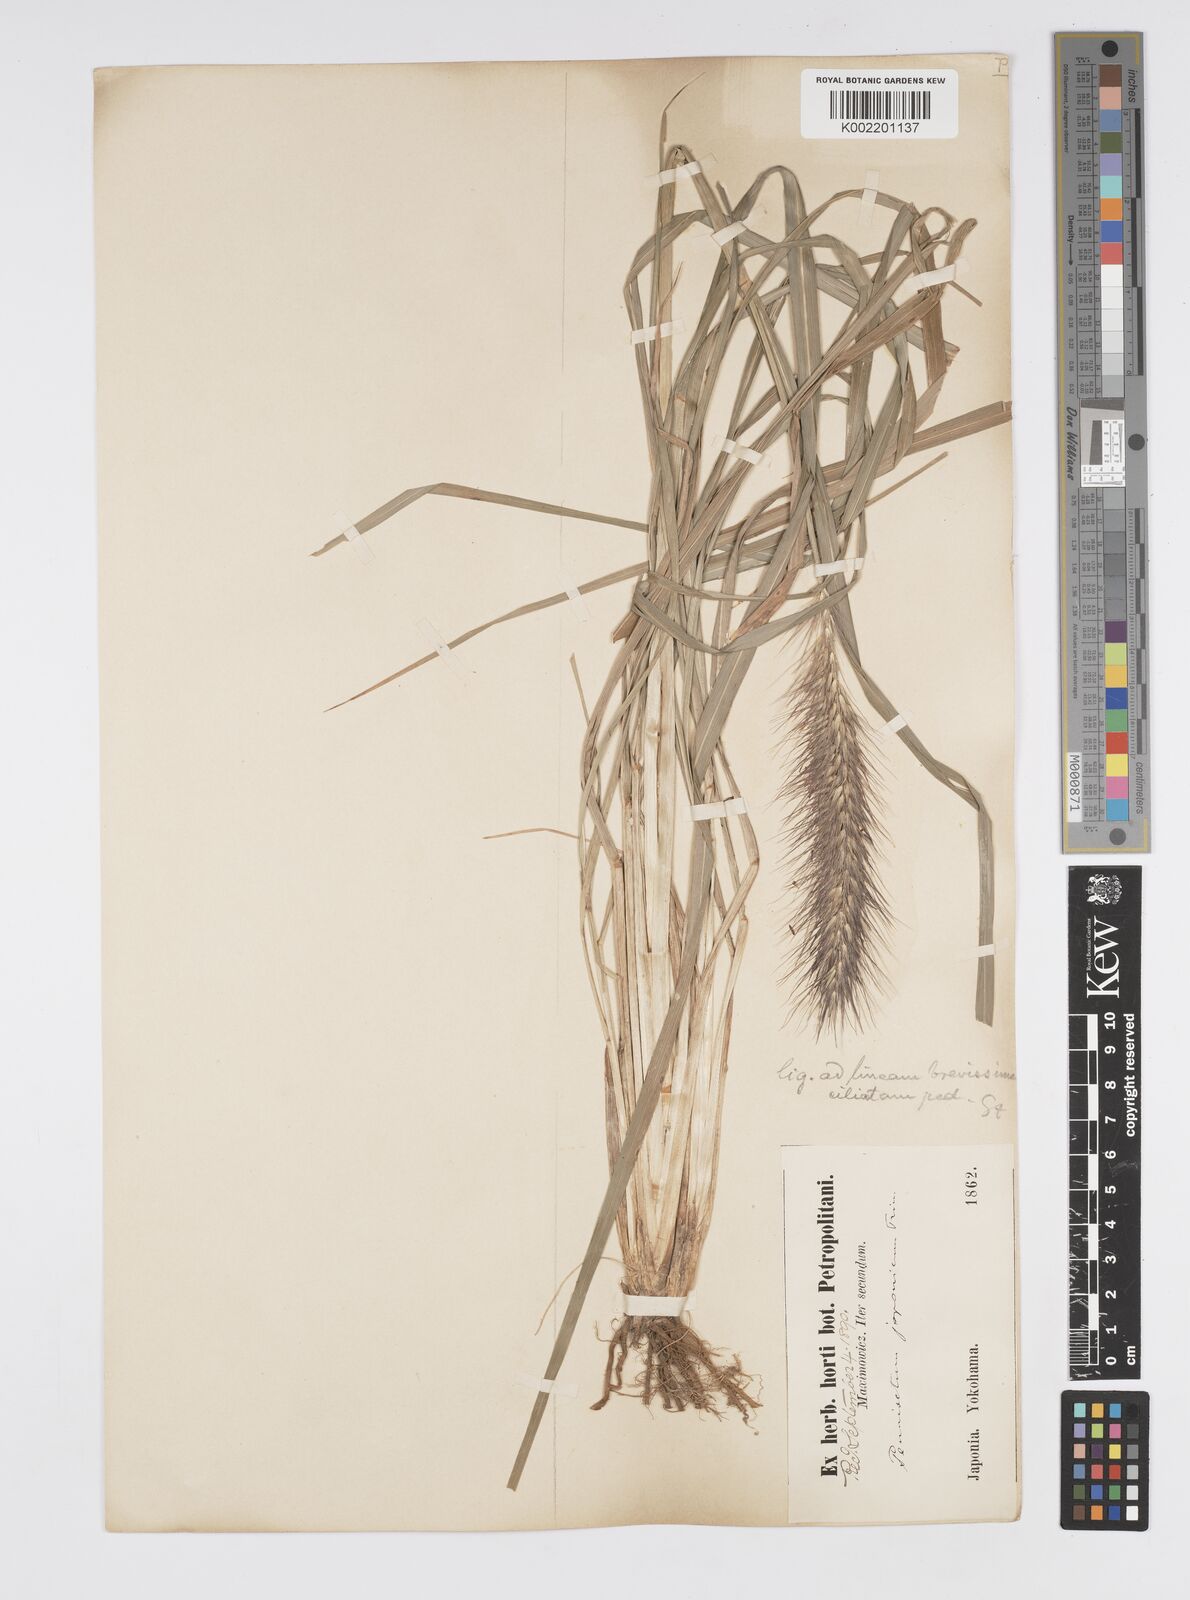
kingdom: Plantae
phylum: Tracheophyta
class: Liliopsida
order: Poales
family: Poaceae
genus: Cenchrus
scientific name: Cenchrus alopecuroides
